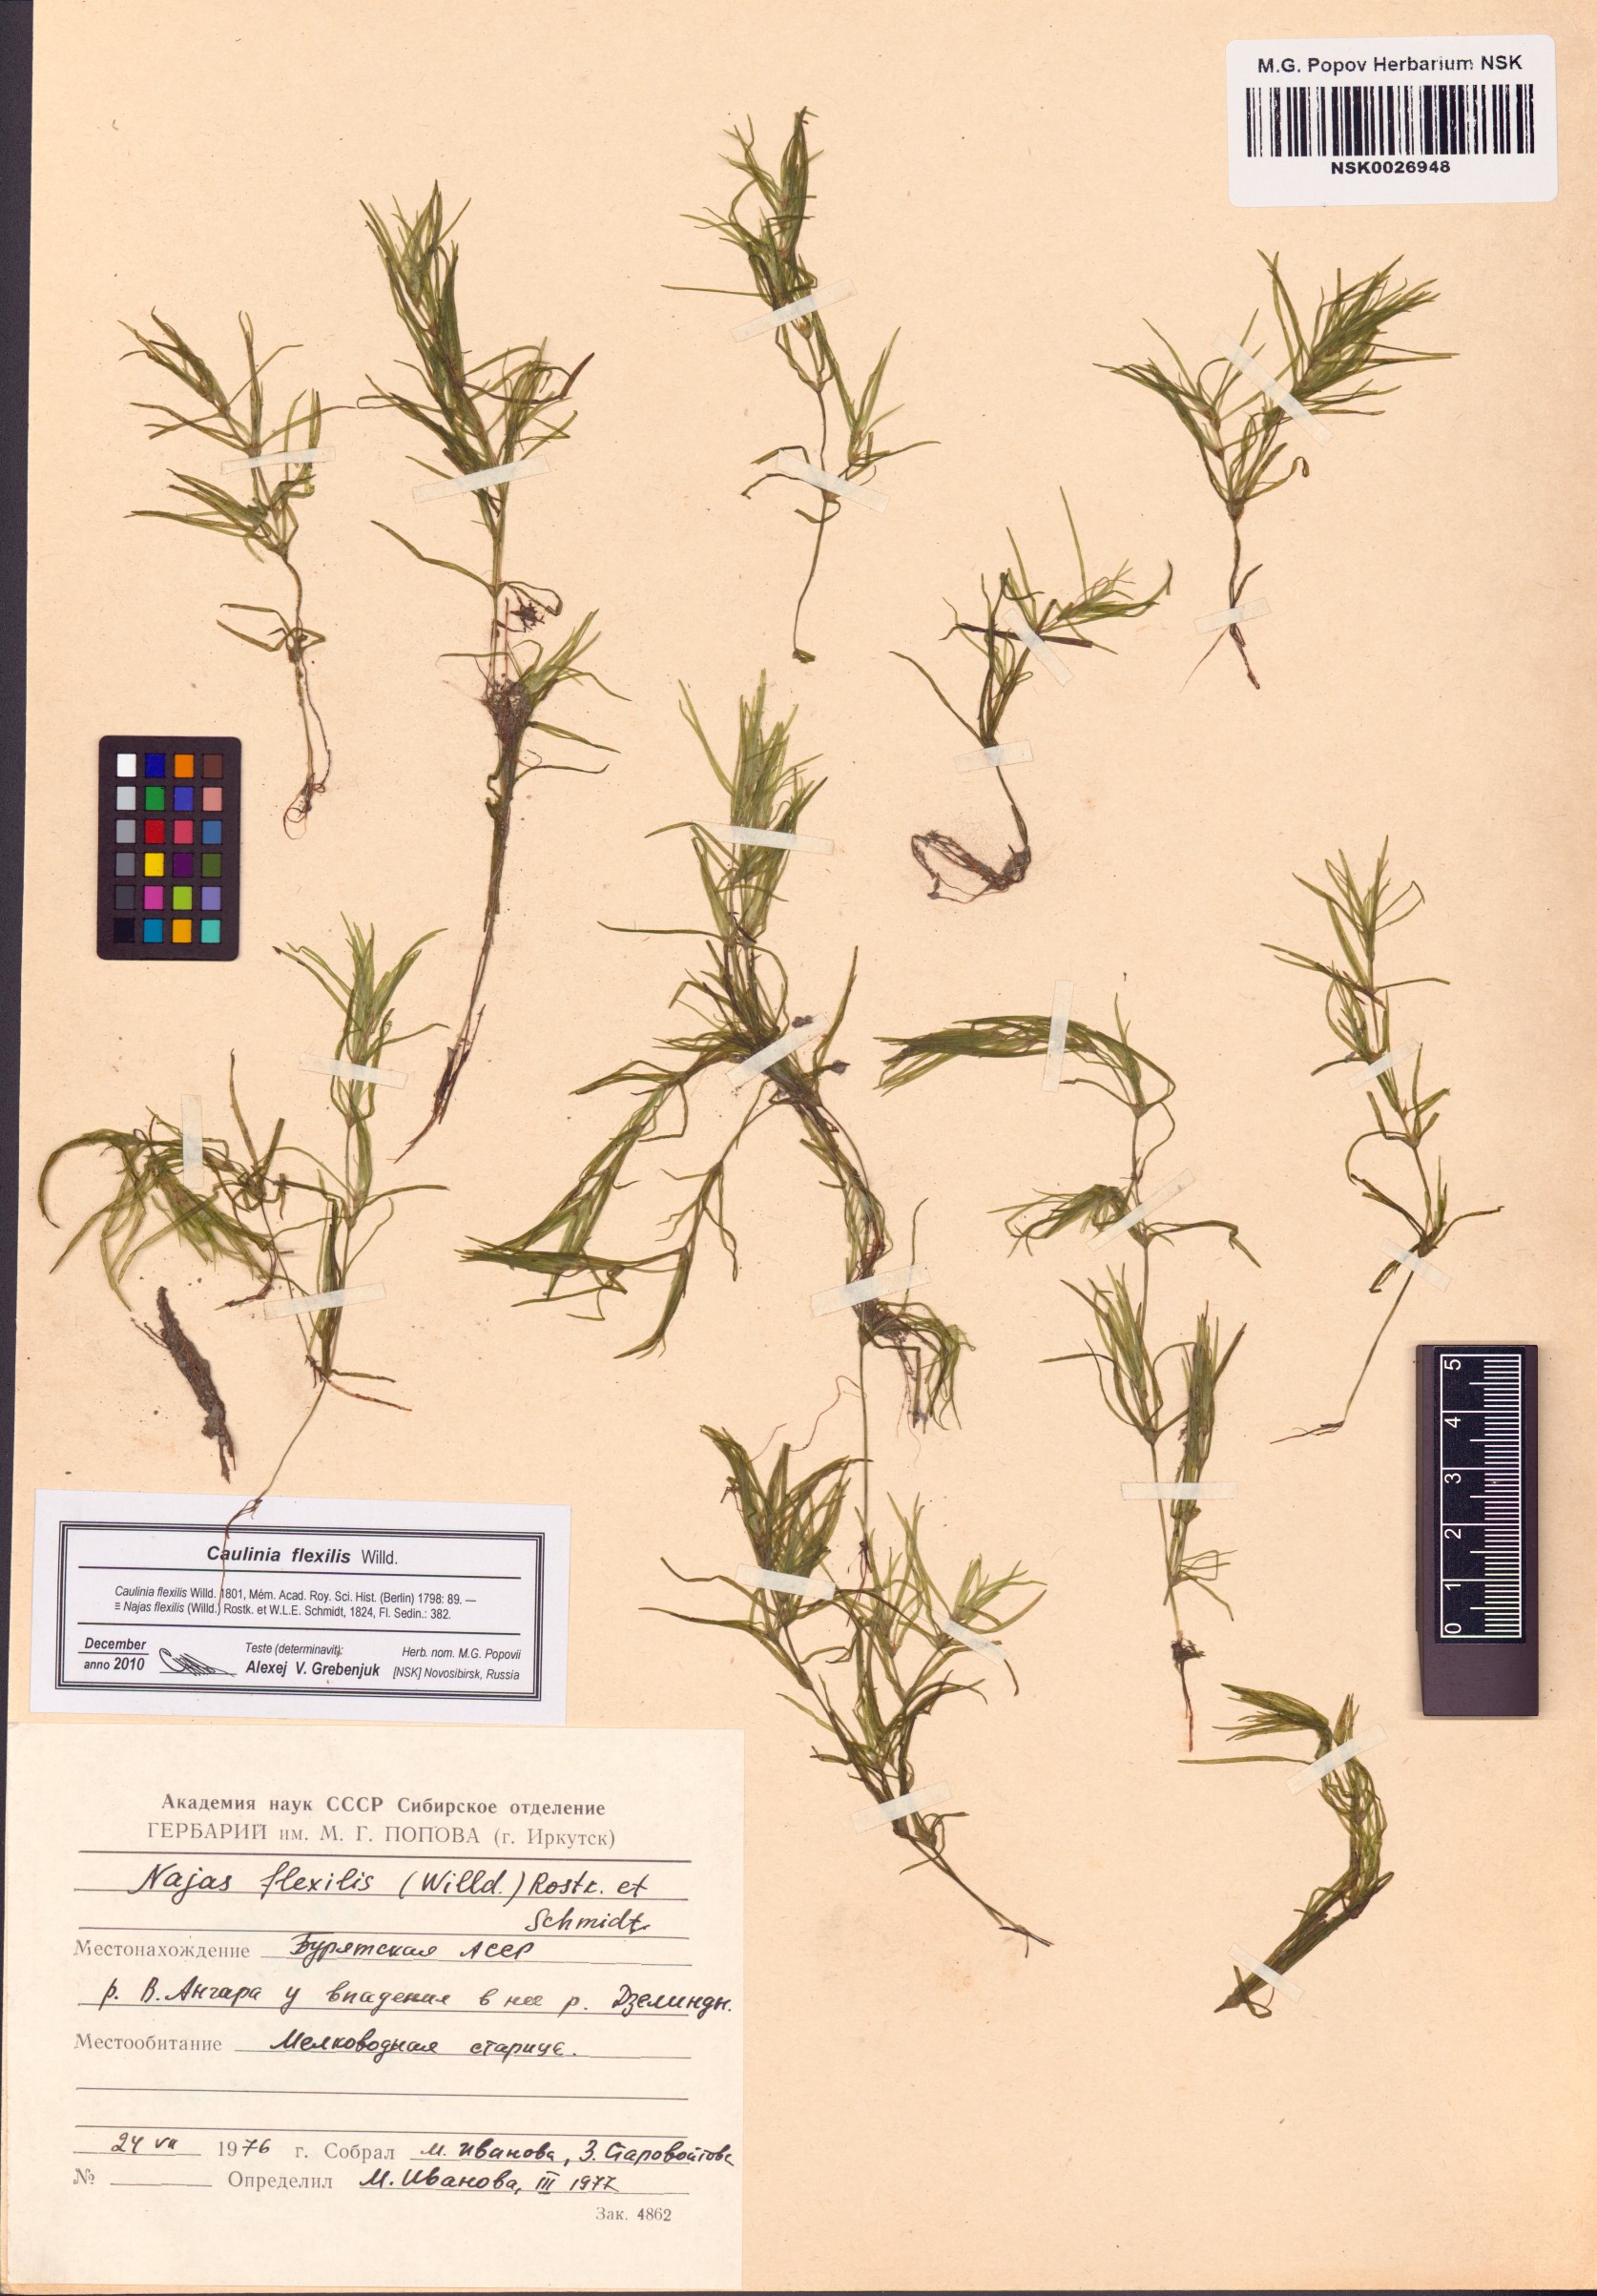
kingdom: Plantae
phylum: Tracheophyta
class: Liliopsida
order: Alismatales
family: Hydrocharitaceae
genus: Najas
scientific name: Najas flexilis
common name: Slender naiad
